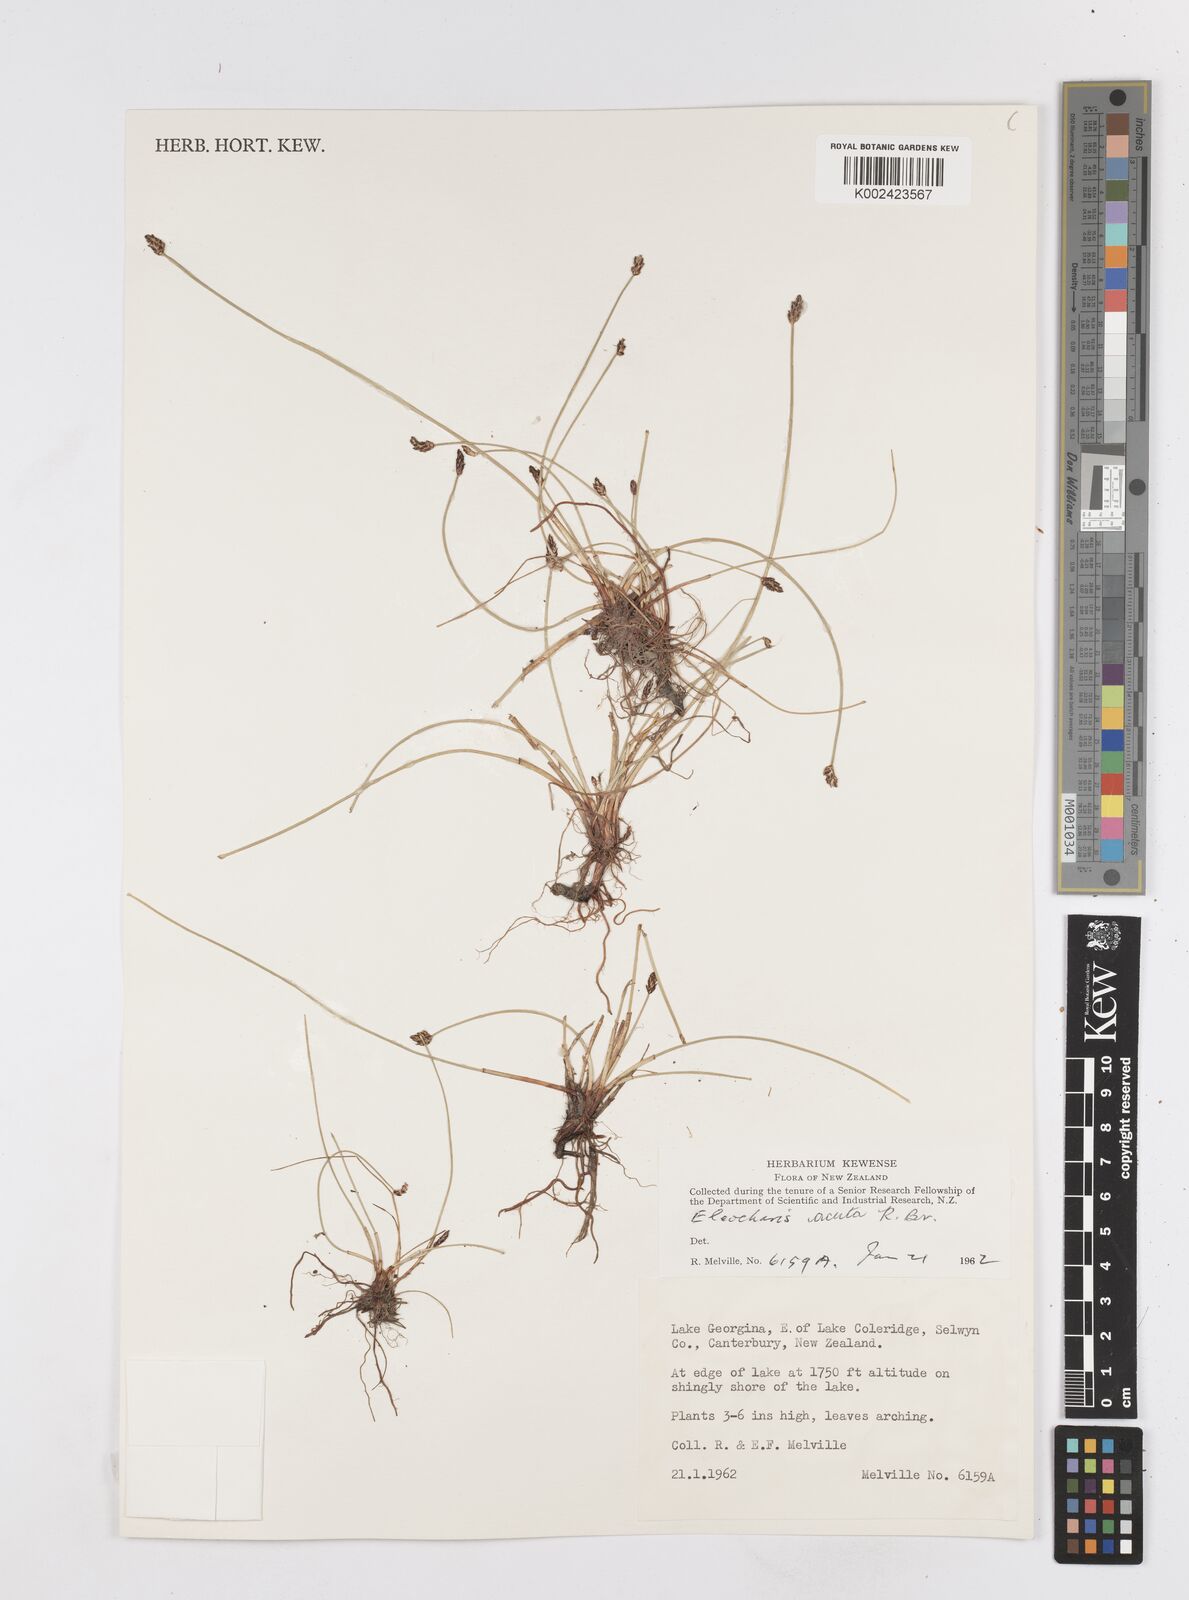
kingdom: Plantae
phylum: Tracheophyta
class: Liliopsida
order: Poales
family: Cyperaceae
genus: Eleocharis
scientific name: Eleocharis acuta
